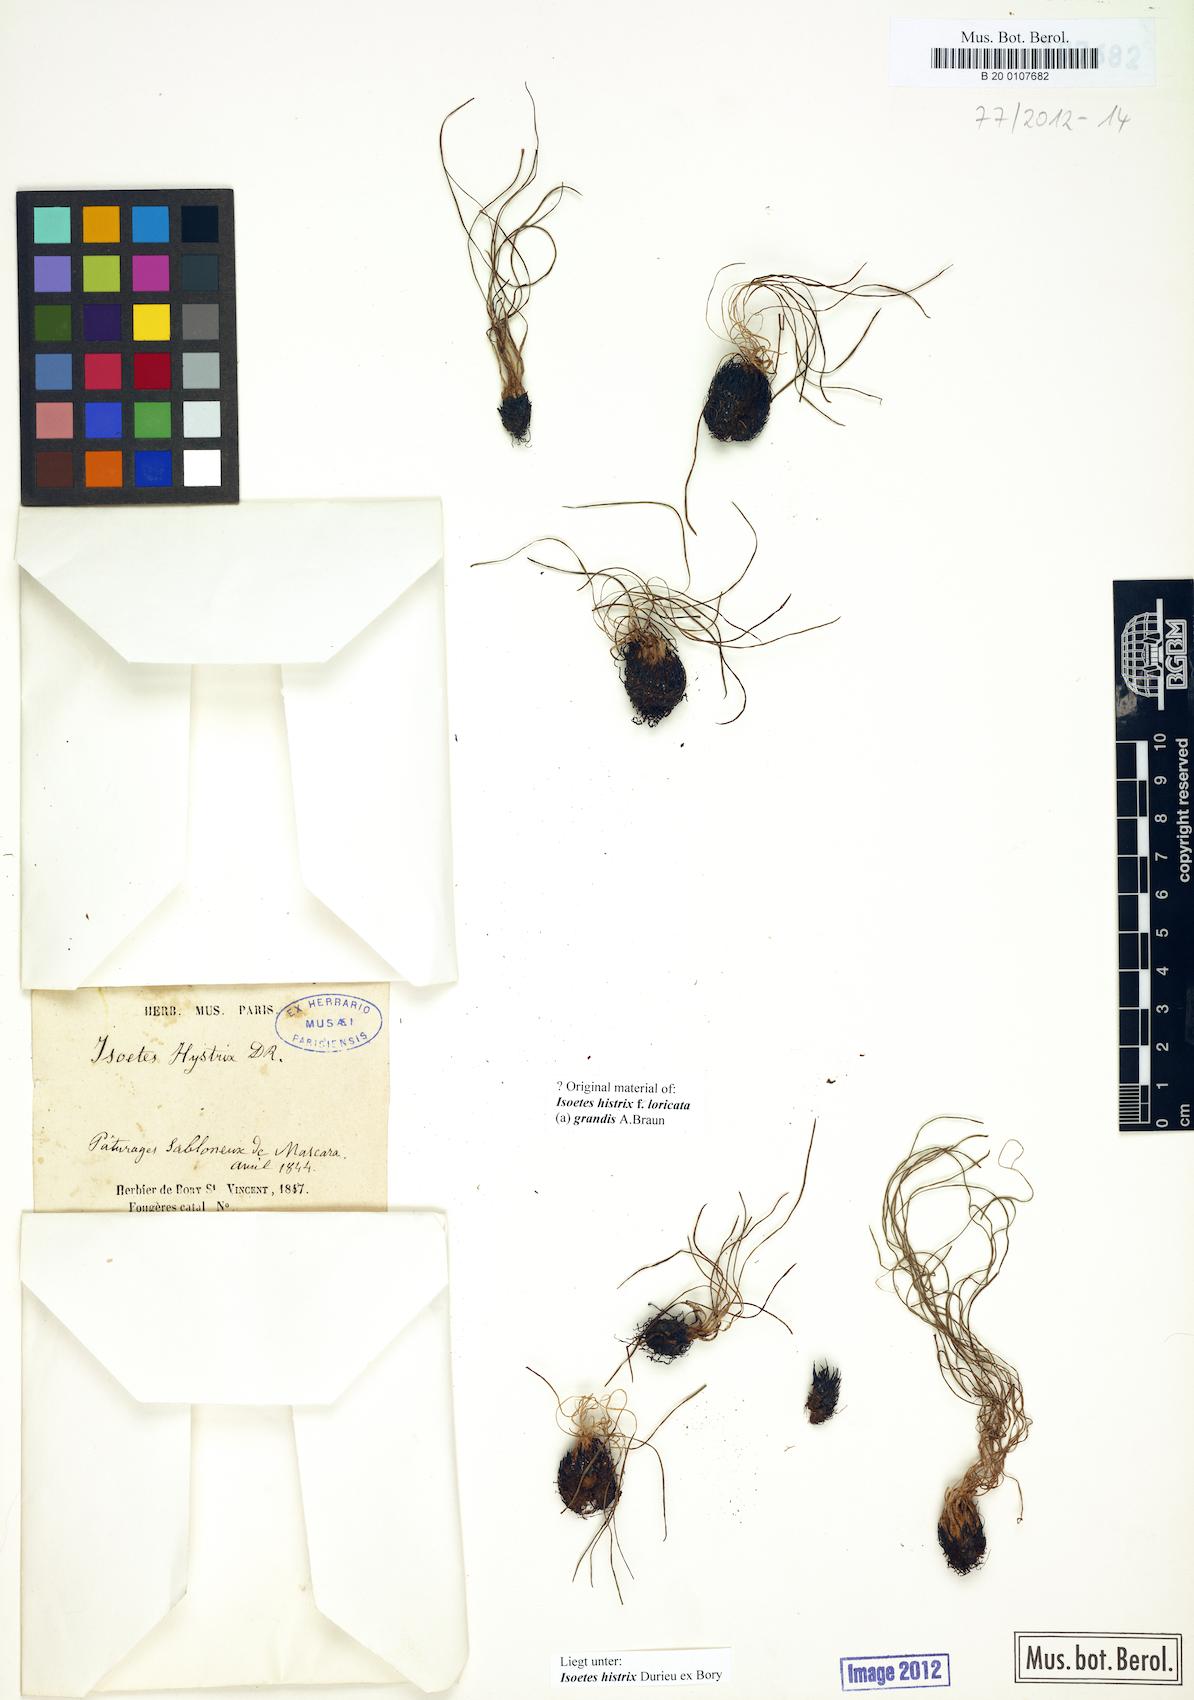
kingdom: Plantae
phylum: Tracheophyta
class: Lycopodiopsida
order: Isoetales
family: Isoetaceae
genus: Isoetes
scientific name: Isoetes histrix
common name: Land quillwort
